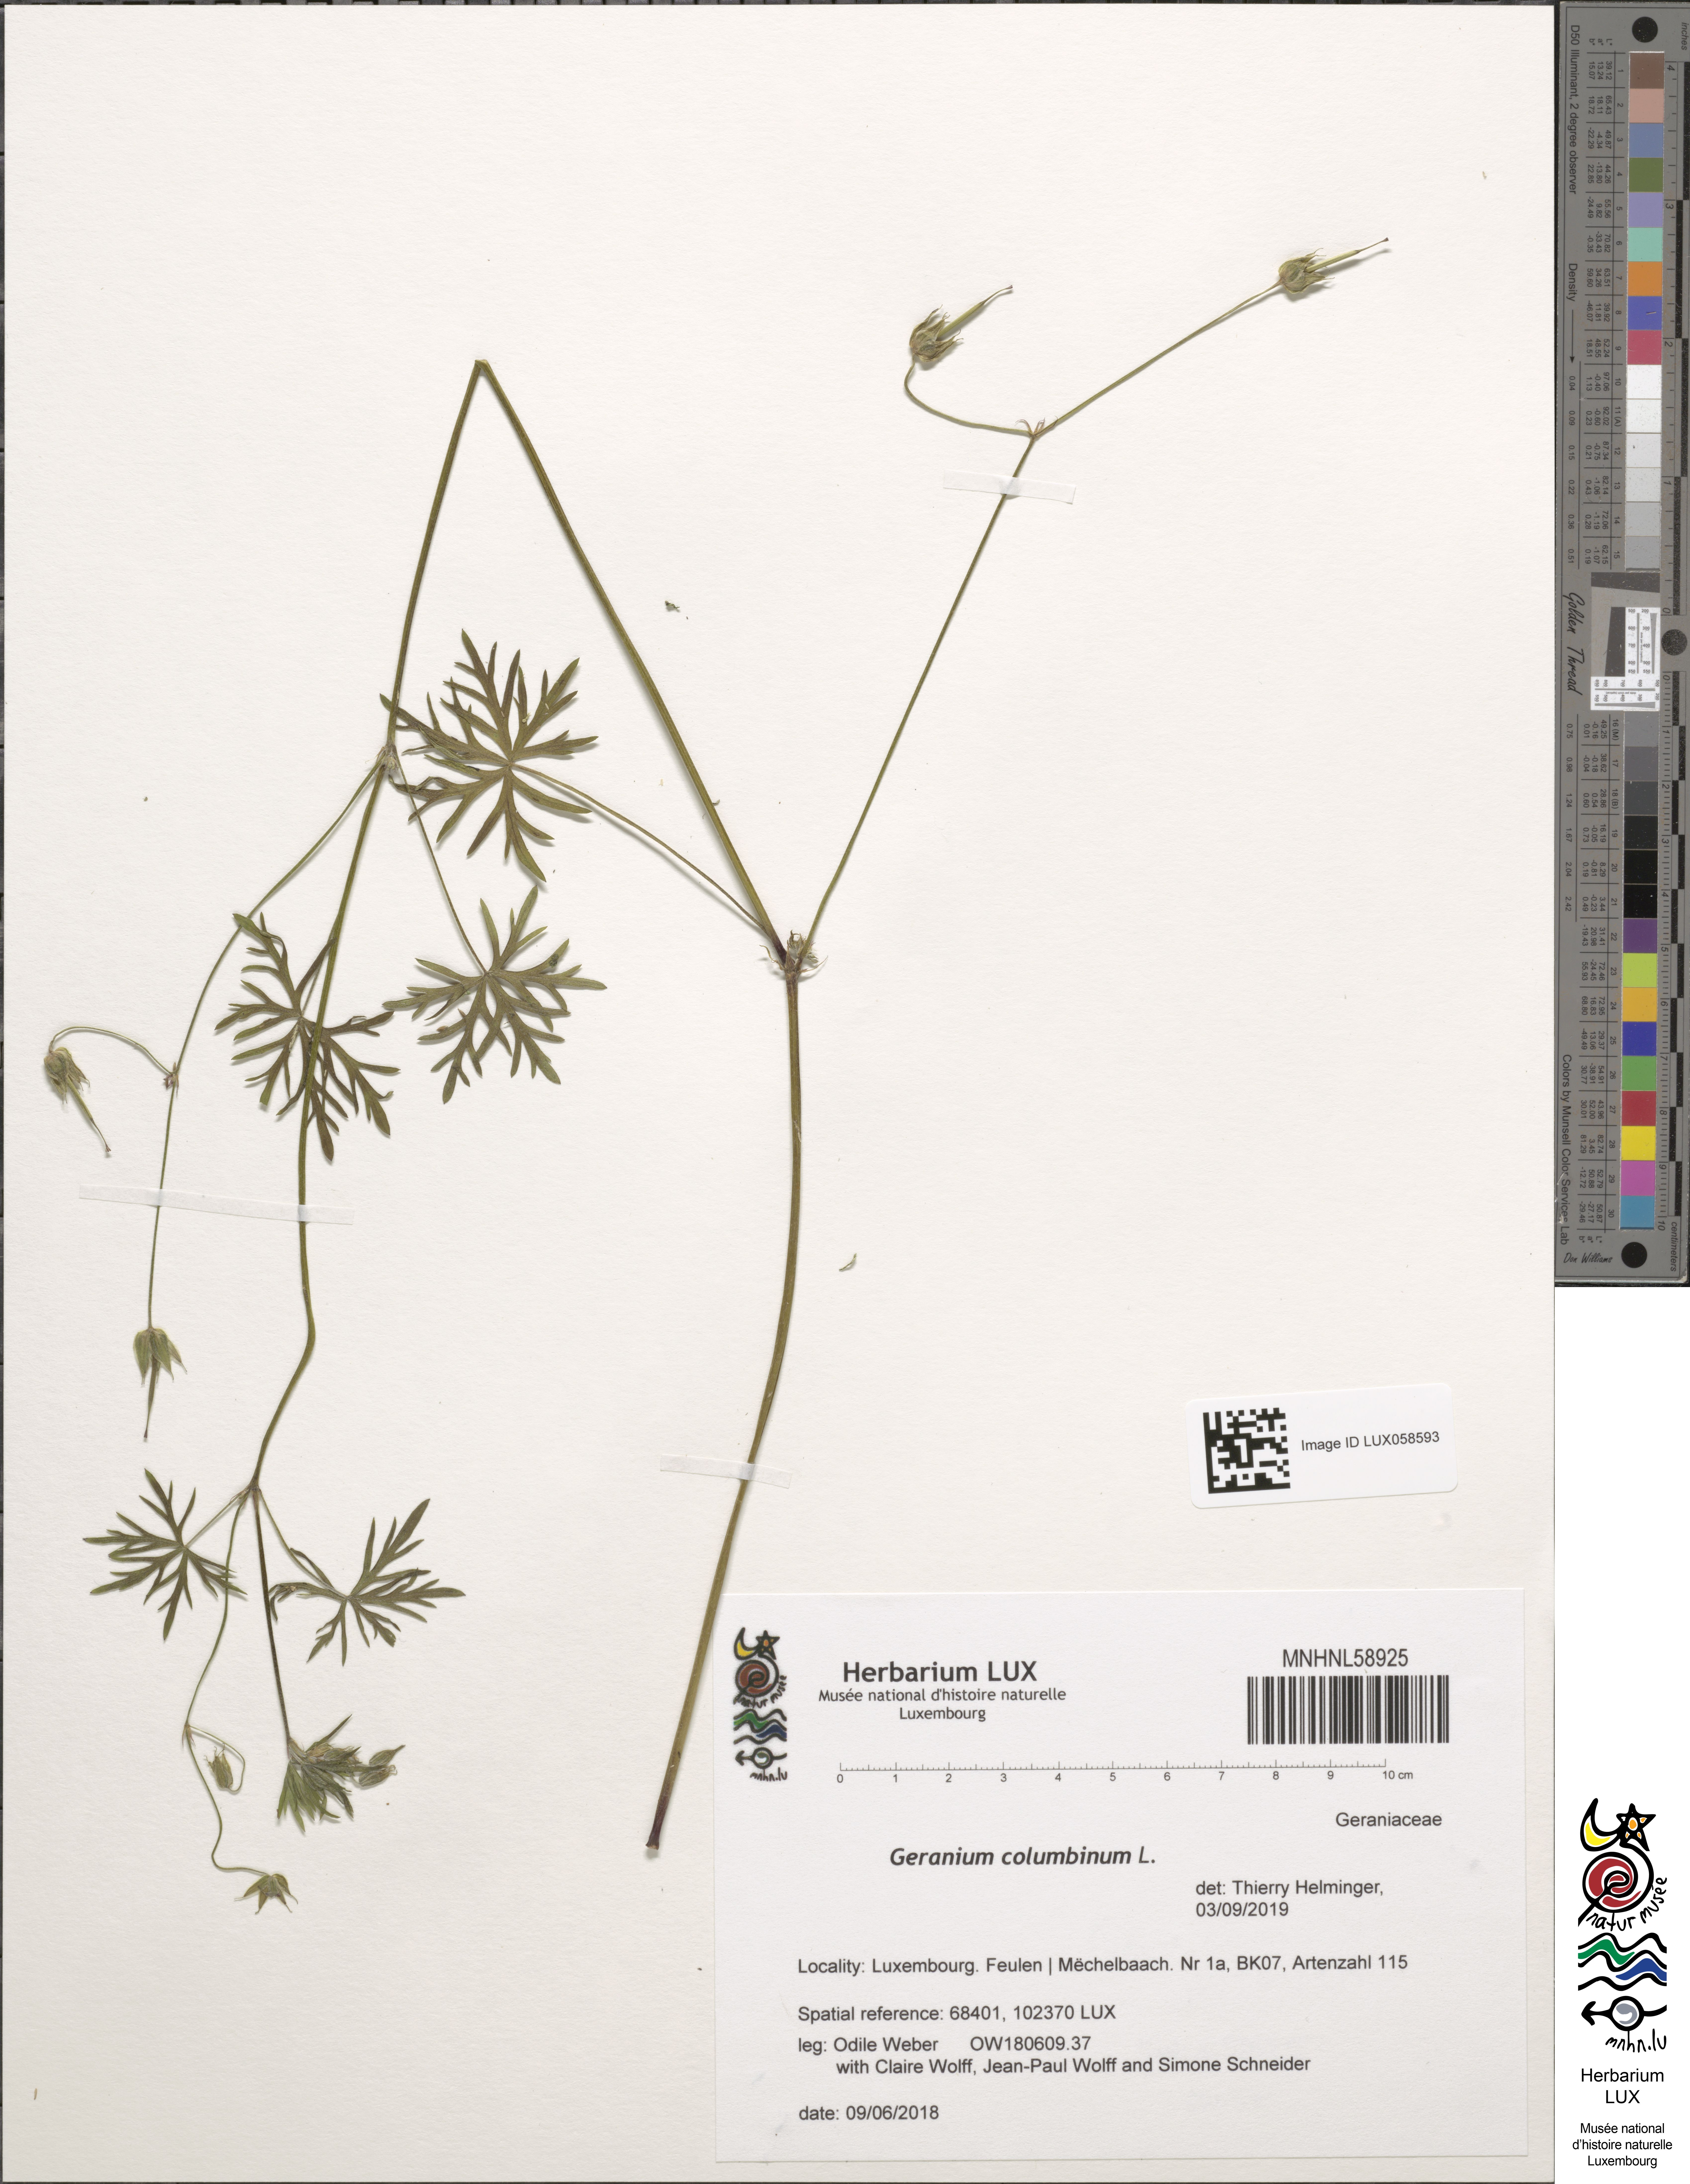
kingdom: Plantae
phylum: Tracheophyta
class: Magnoliopsida
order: Geraniales
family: Geraniaceae
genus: Geranium
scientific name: Geranium columbinum
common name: Long-stalked crane's-bill
